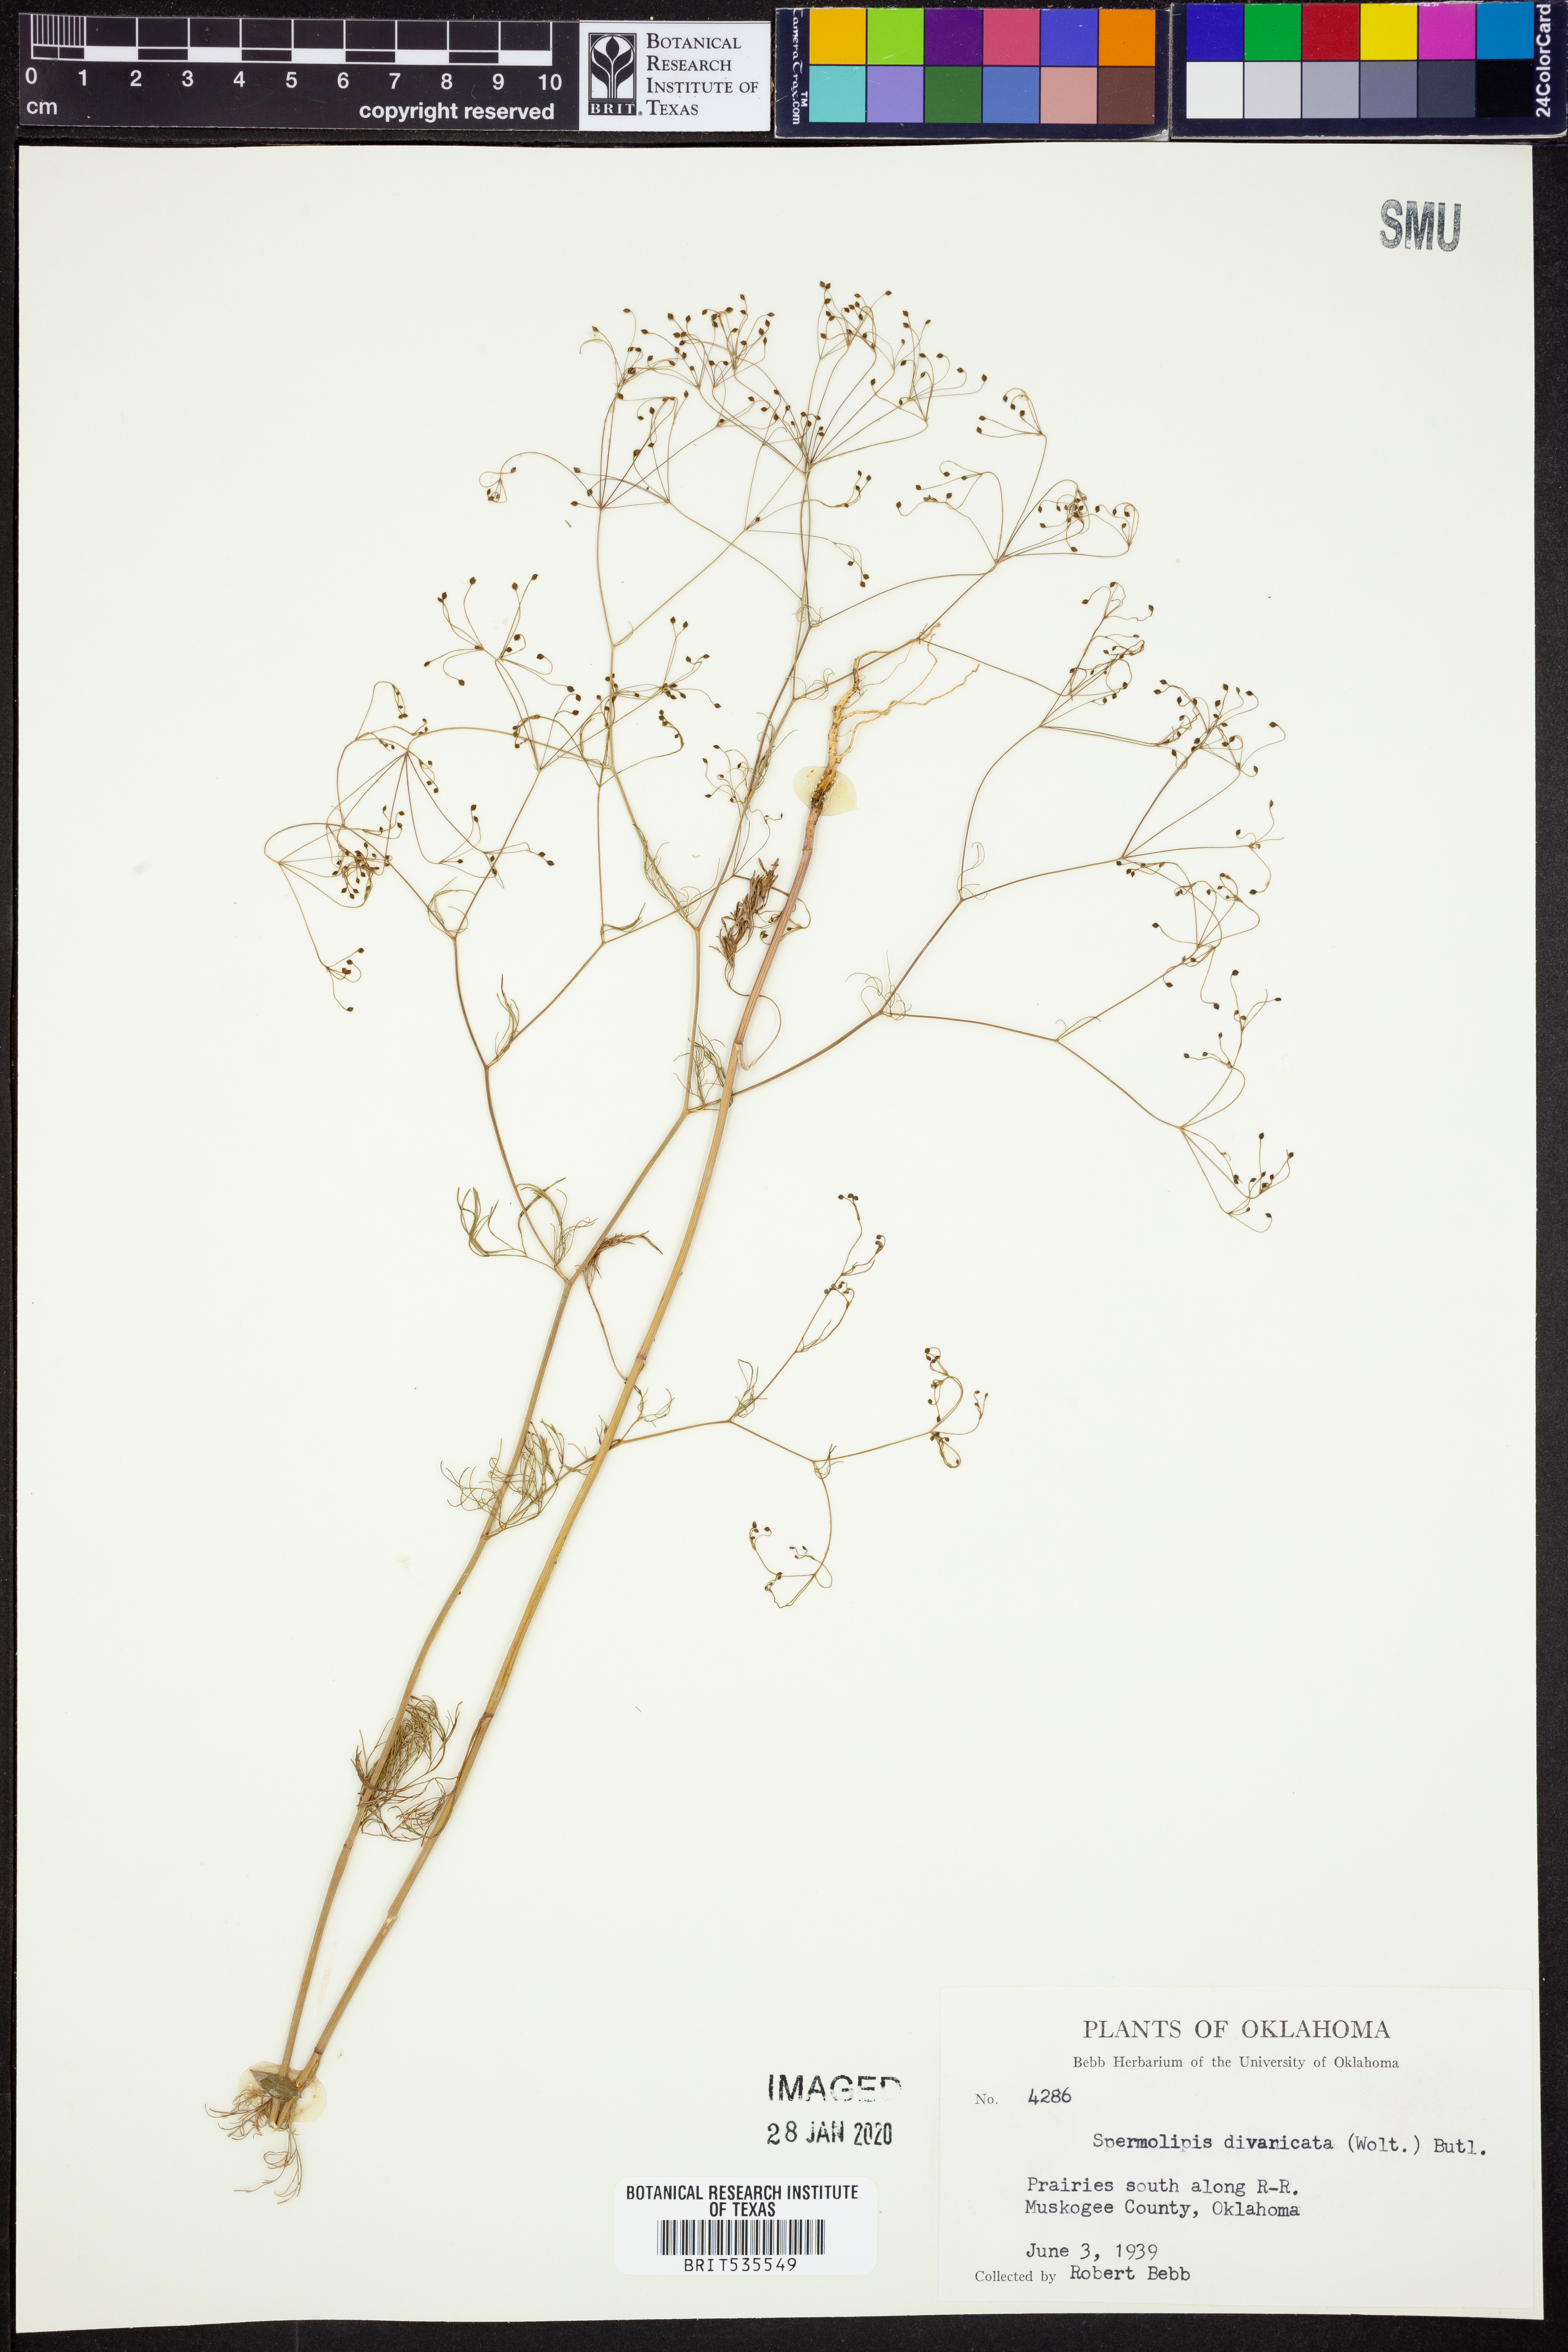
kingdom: Plantae
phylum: Tracheophyta
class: Magnoliopsida
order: Apiales
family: Apiaceae
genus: Spermolepis
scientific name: Spermolepis divaricata
